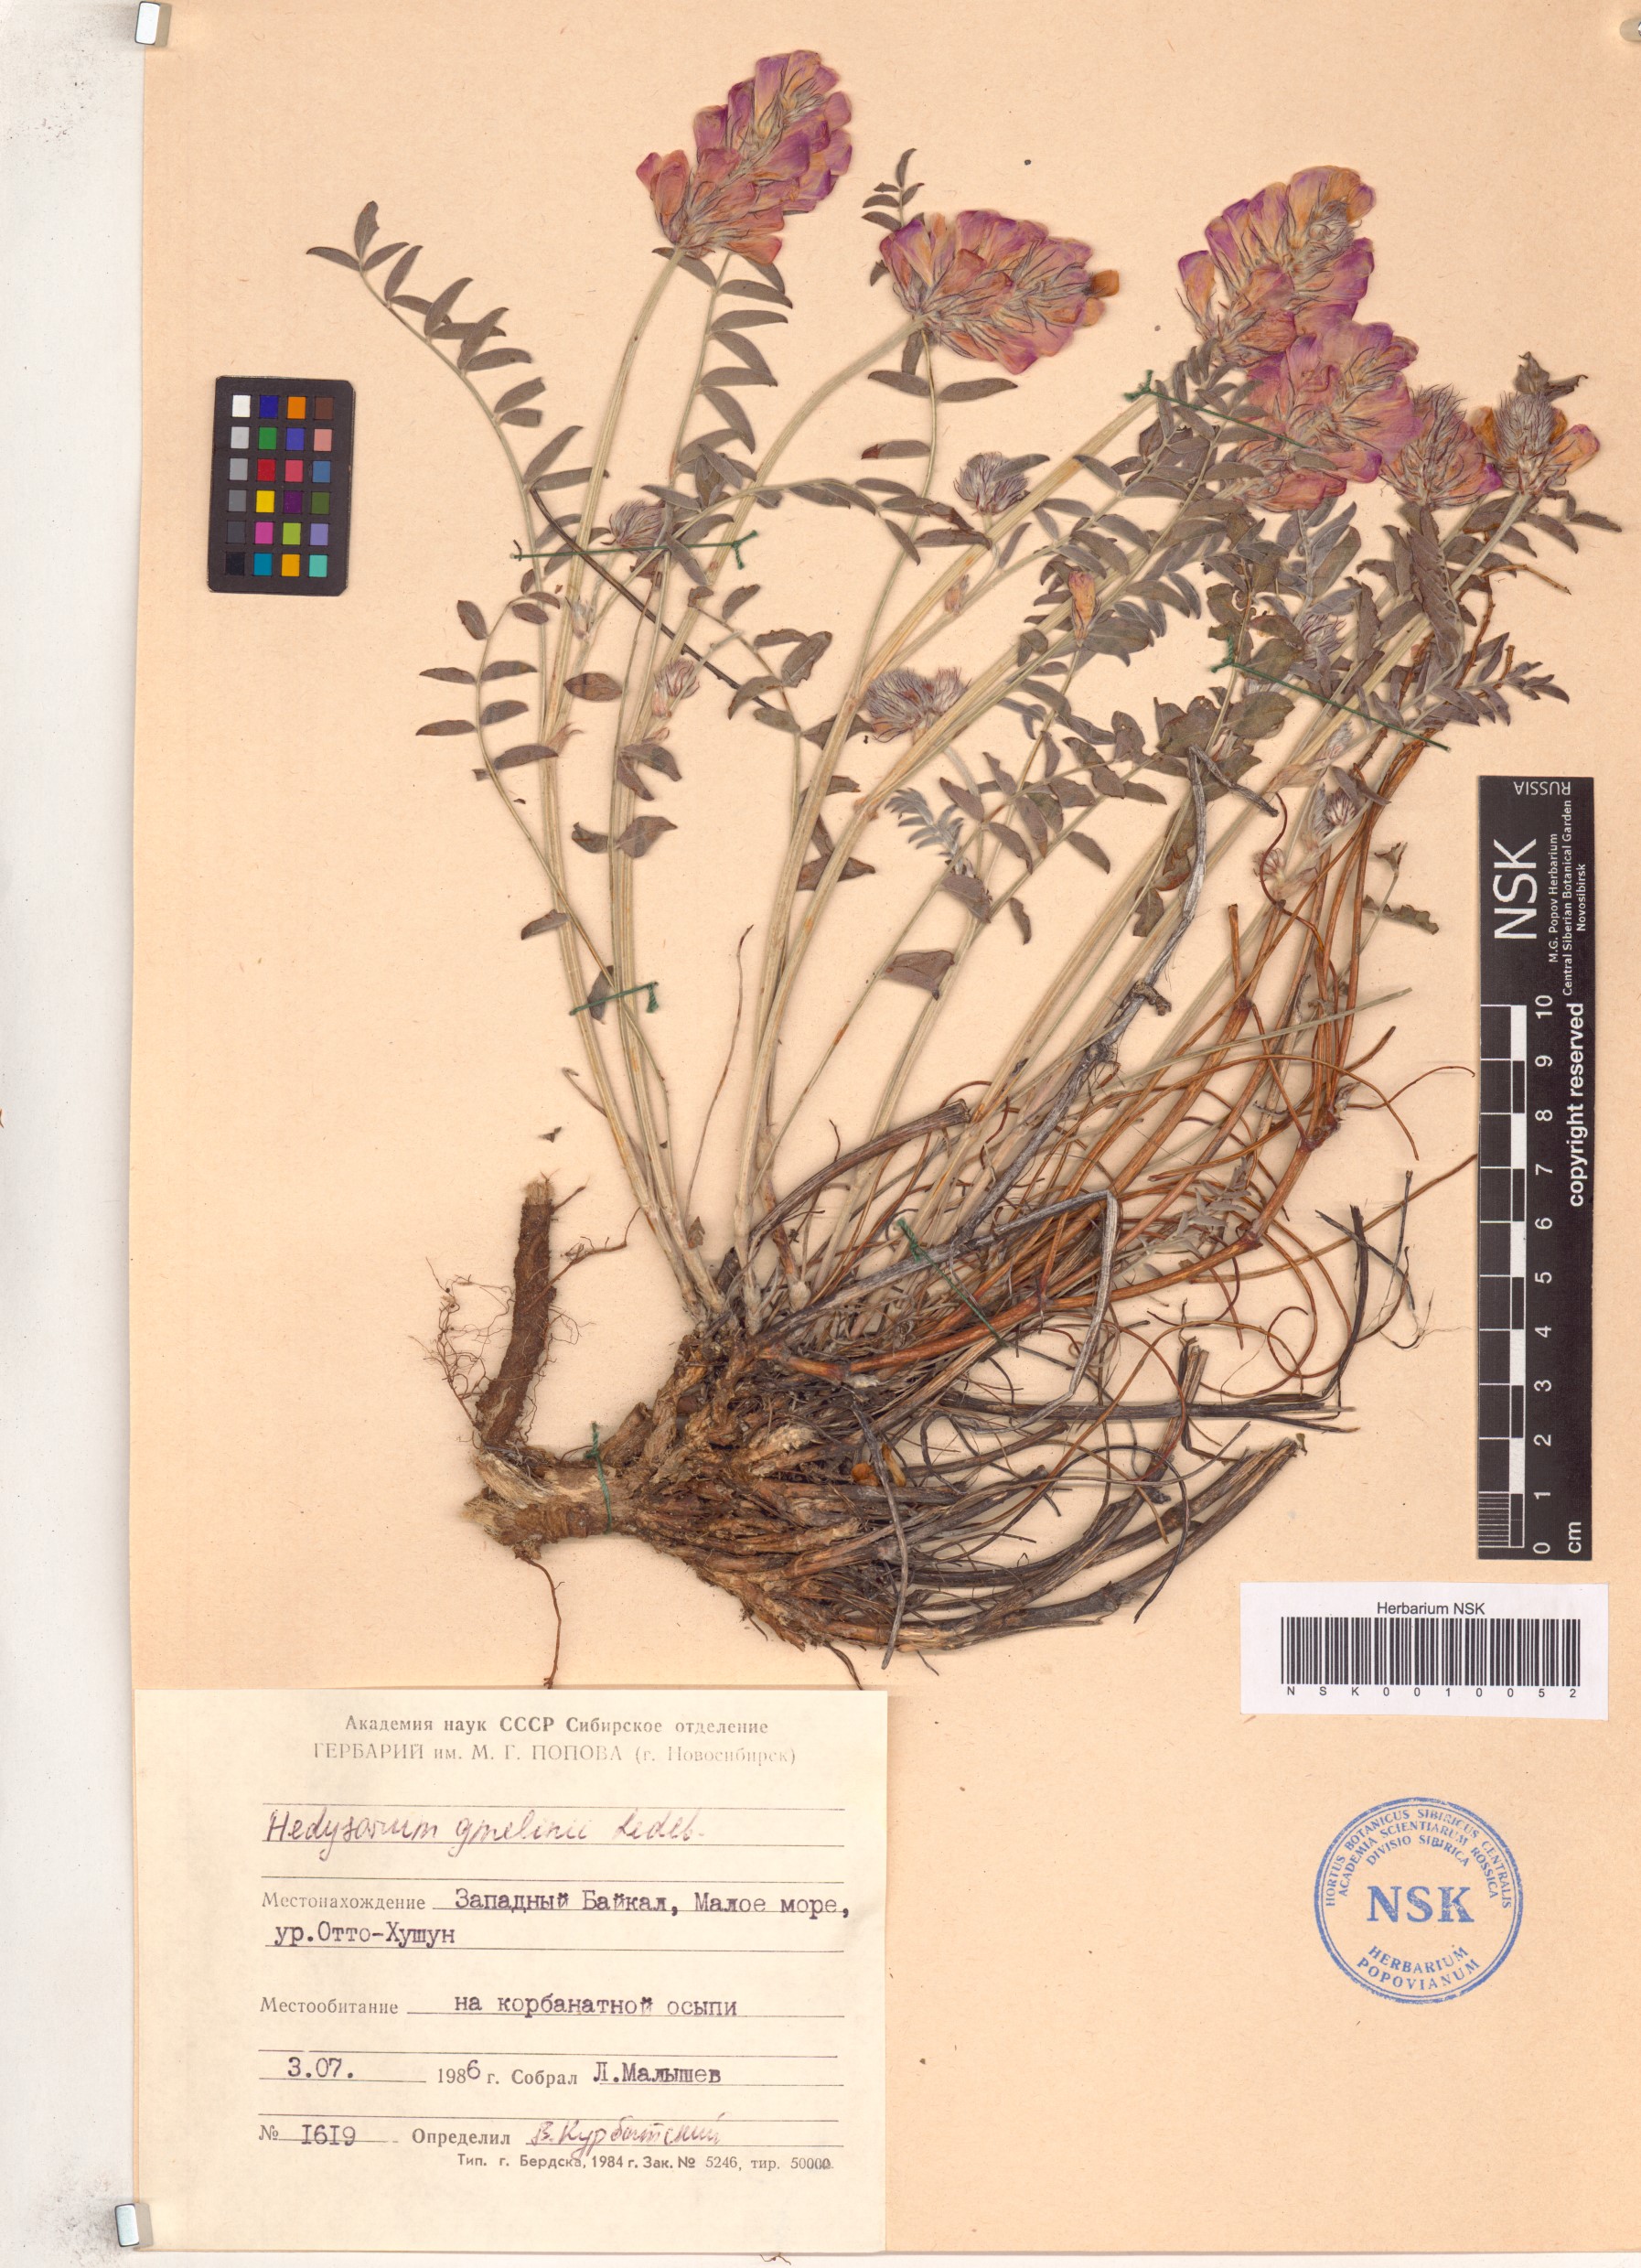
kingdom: Plantae
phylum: Tracheophyta
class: Magnoliopsida
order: Fabales
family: Fabaceae
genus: Hedysarum
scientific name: Hedysarum gmelinii
